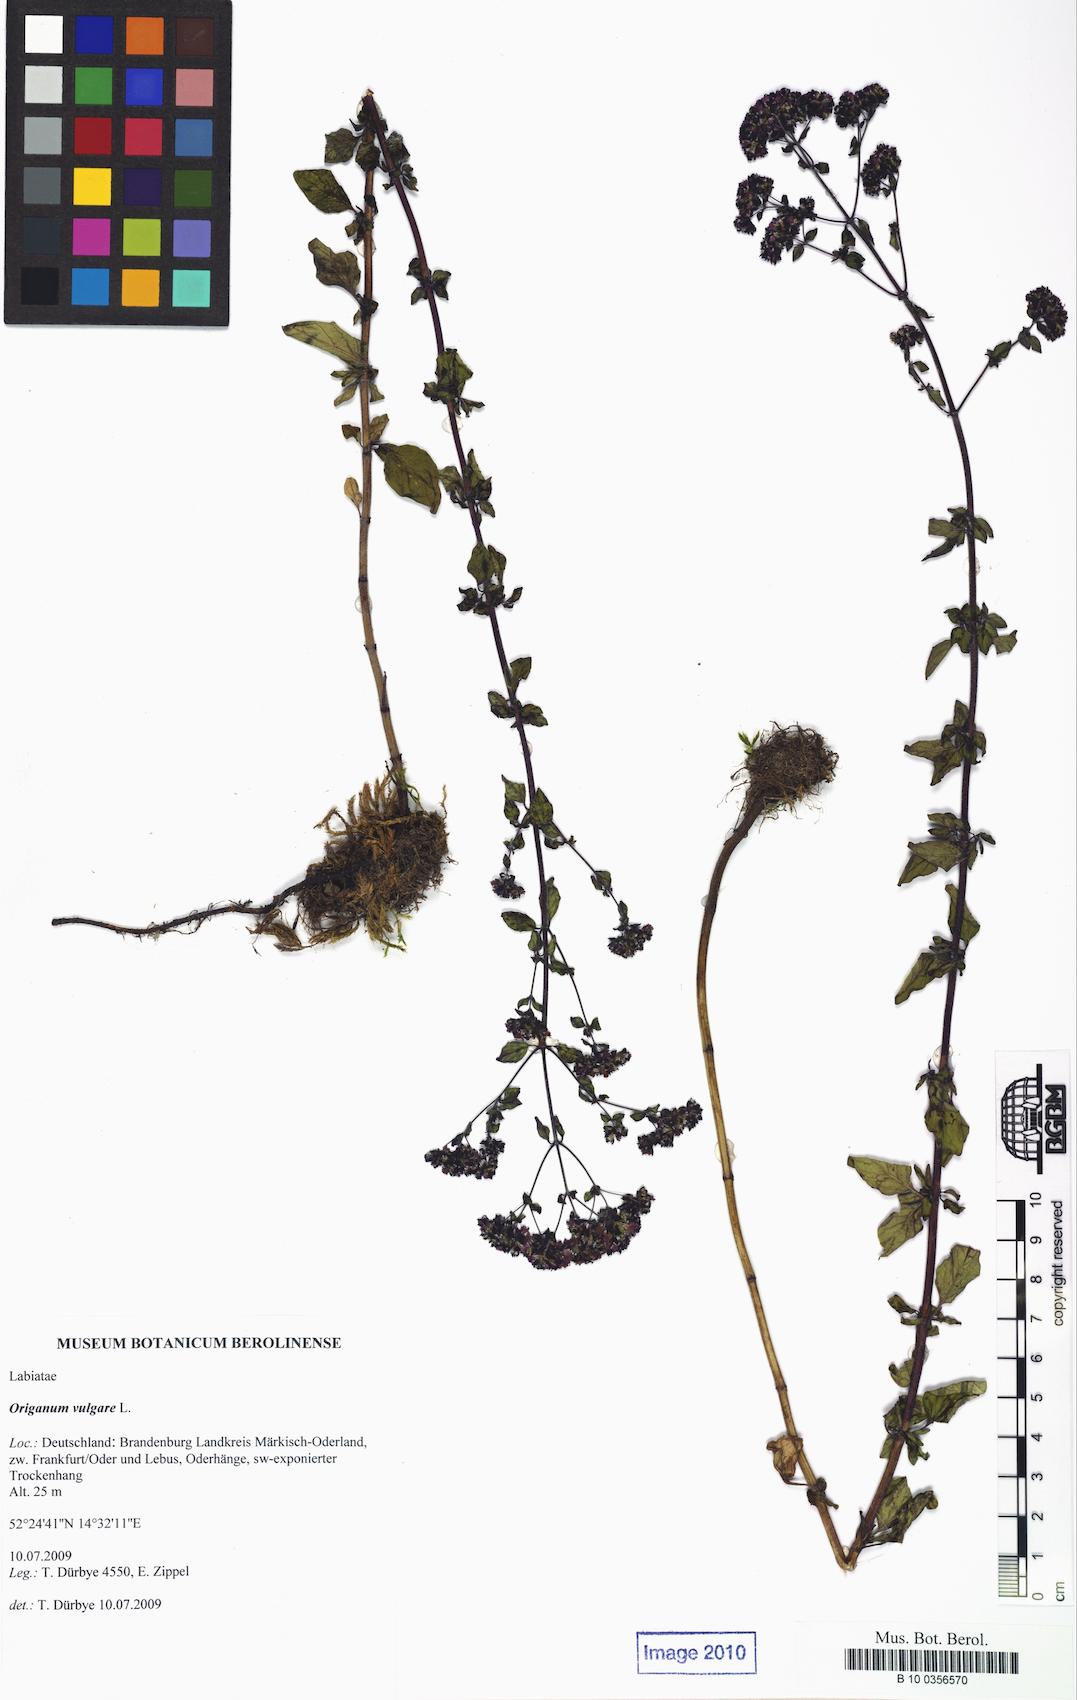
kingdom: Plantae
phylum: Tracheophyta
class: Magnoliopsida
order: Lamiales
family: Lamiaceae
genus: Origanum
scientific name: Origanum vulgare
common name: Wild marjoram
